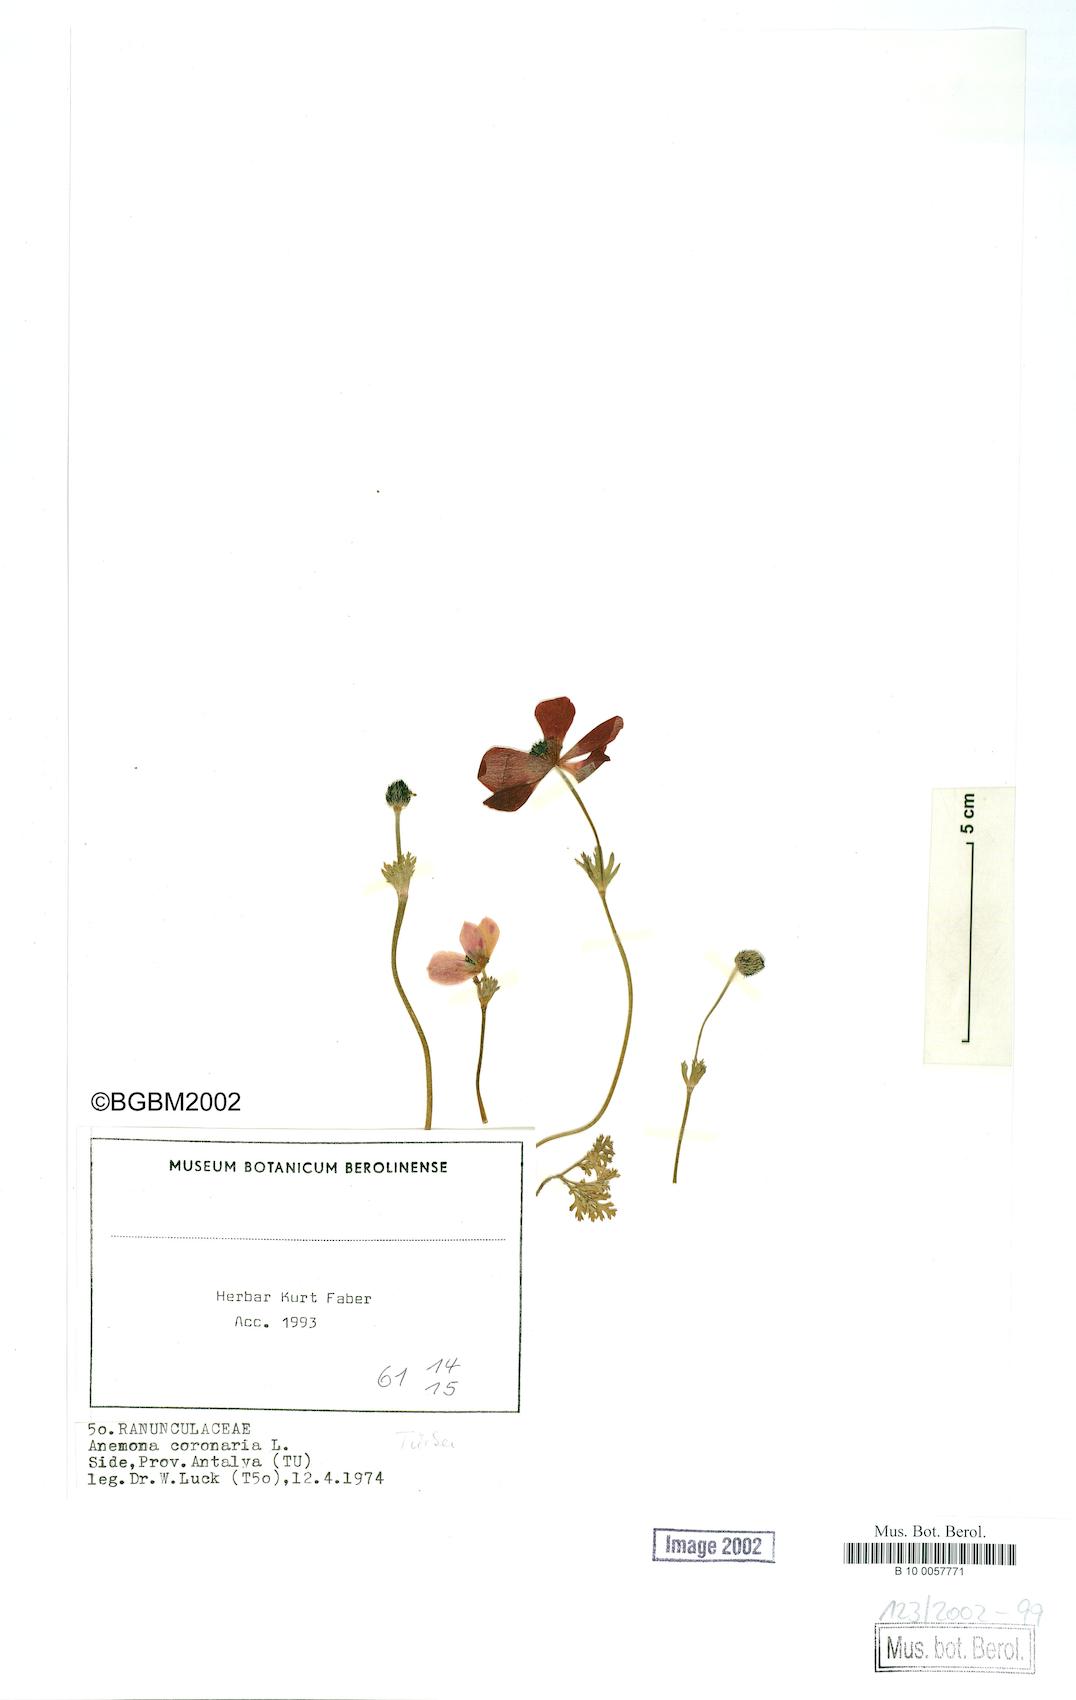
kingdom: Plantae
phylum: Tracheophyta
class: Magnoliopsida
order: Ranunculales
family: Ranunculaceae
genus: Anemone
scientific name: Anemone coronaria
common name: Poppy anemone
